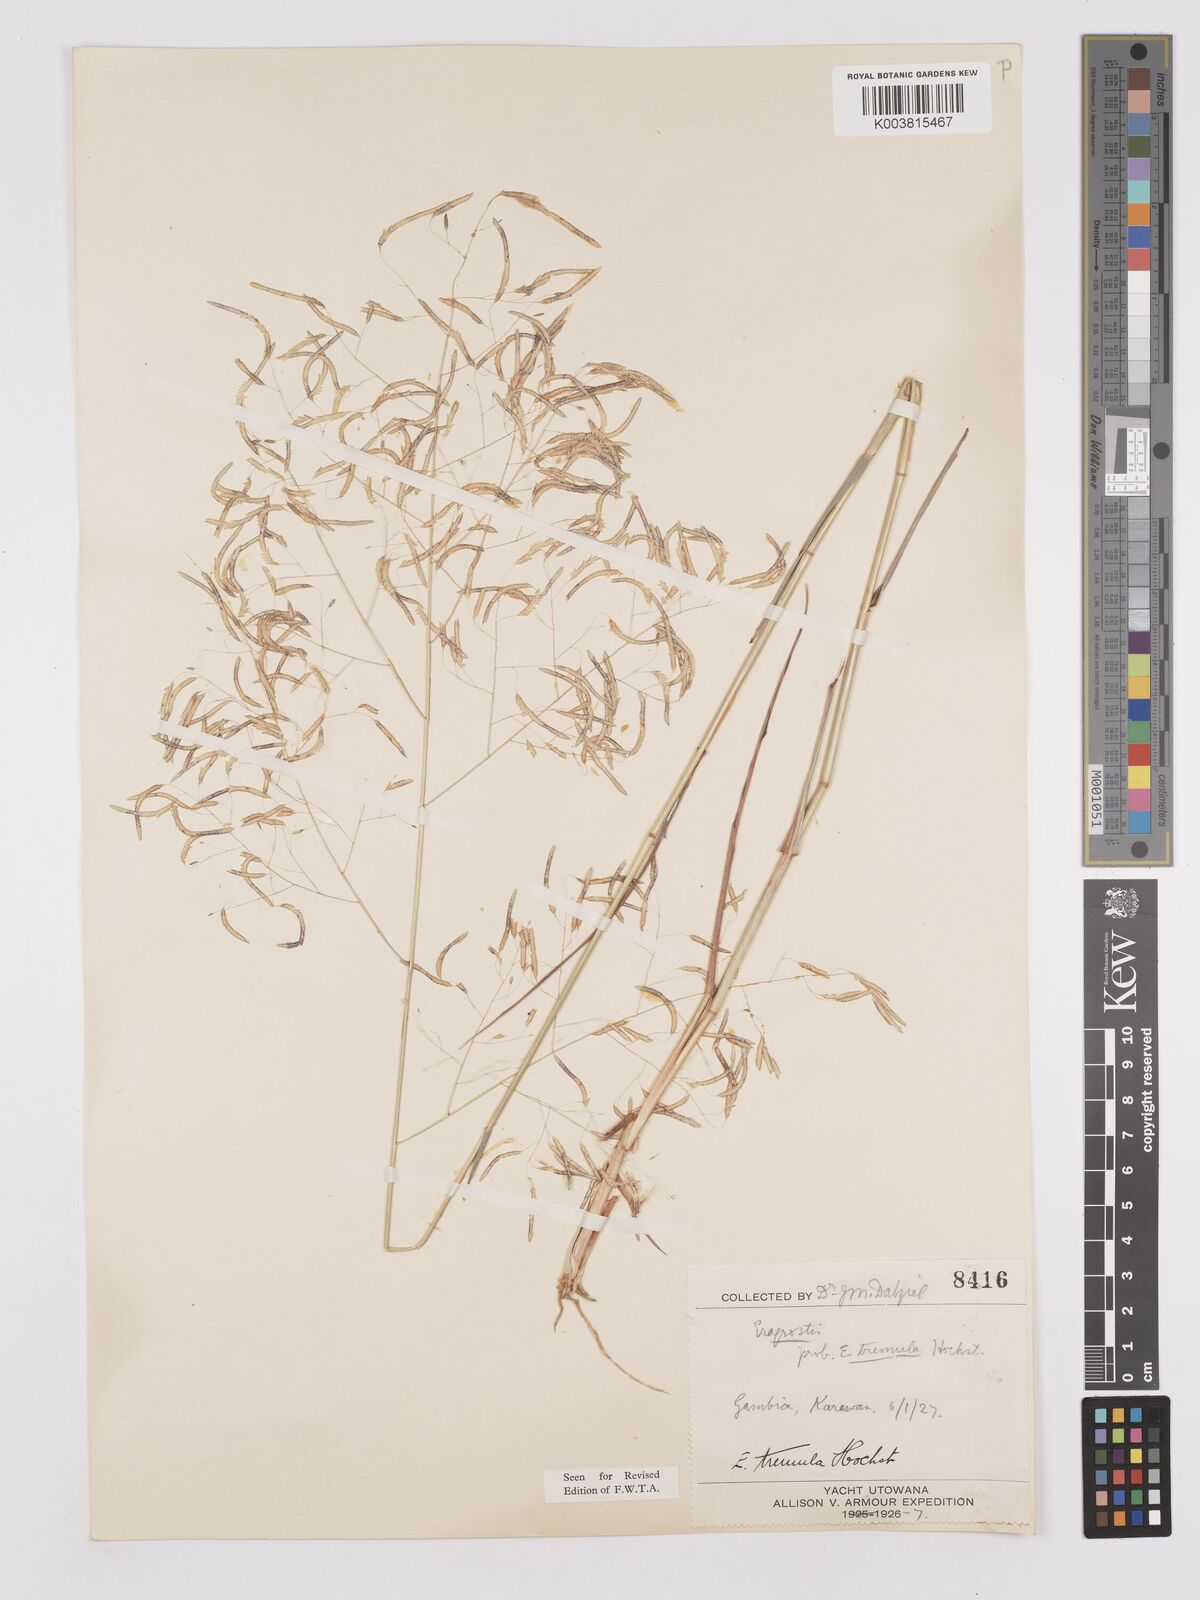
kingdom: Plantae
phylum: Tracheophyta
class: Liliopsida
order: Poales
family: Poaceae
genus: Eragrostis
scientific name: Eragrostis tremula
